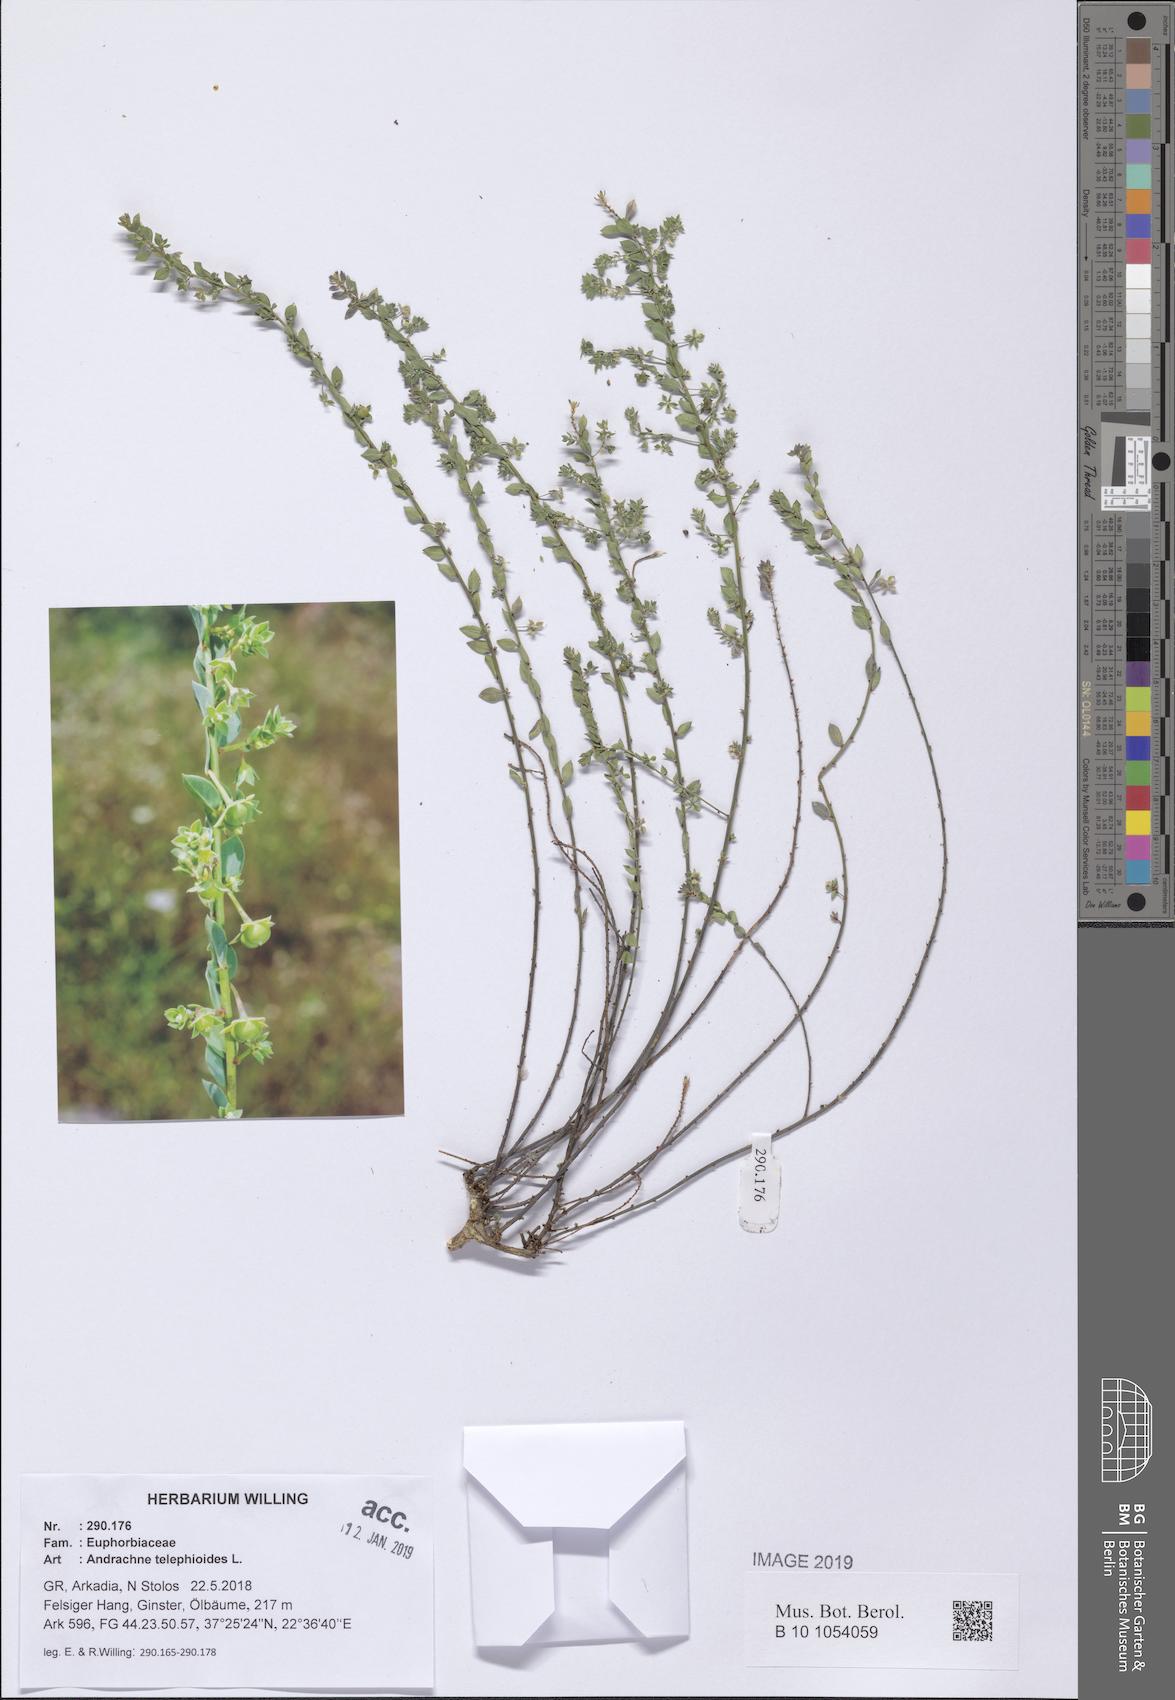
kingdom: Plantae
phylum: Tracheophyta
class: Magnoliopsida
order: Malpighiales
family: Phyllanthaceae
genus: Andrachne
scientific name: Andrachne telephioides
